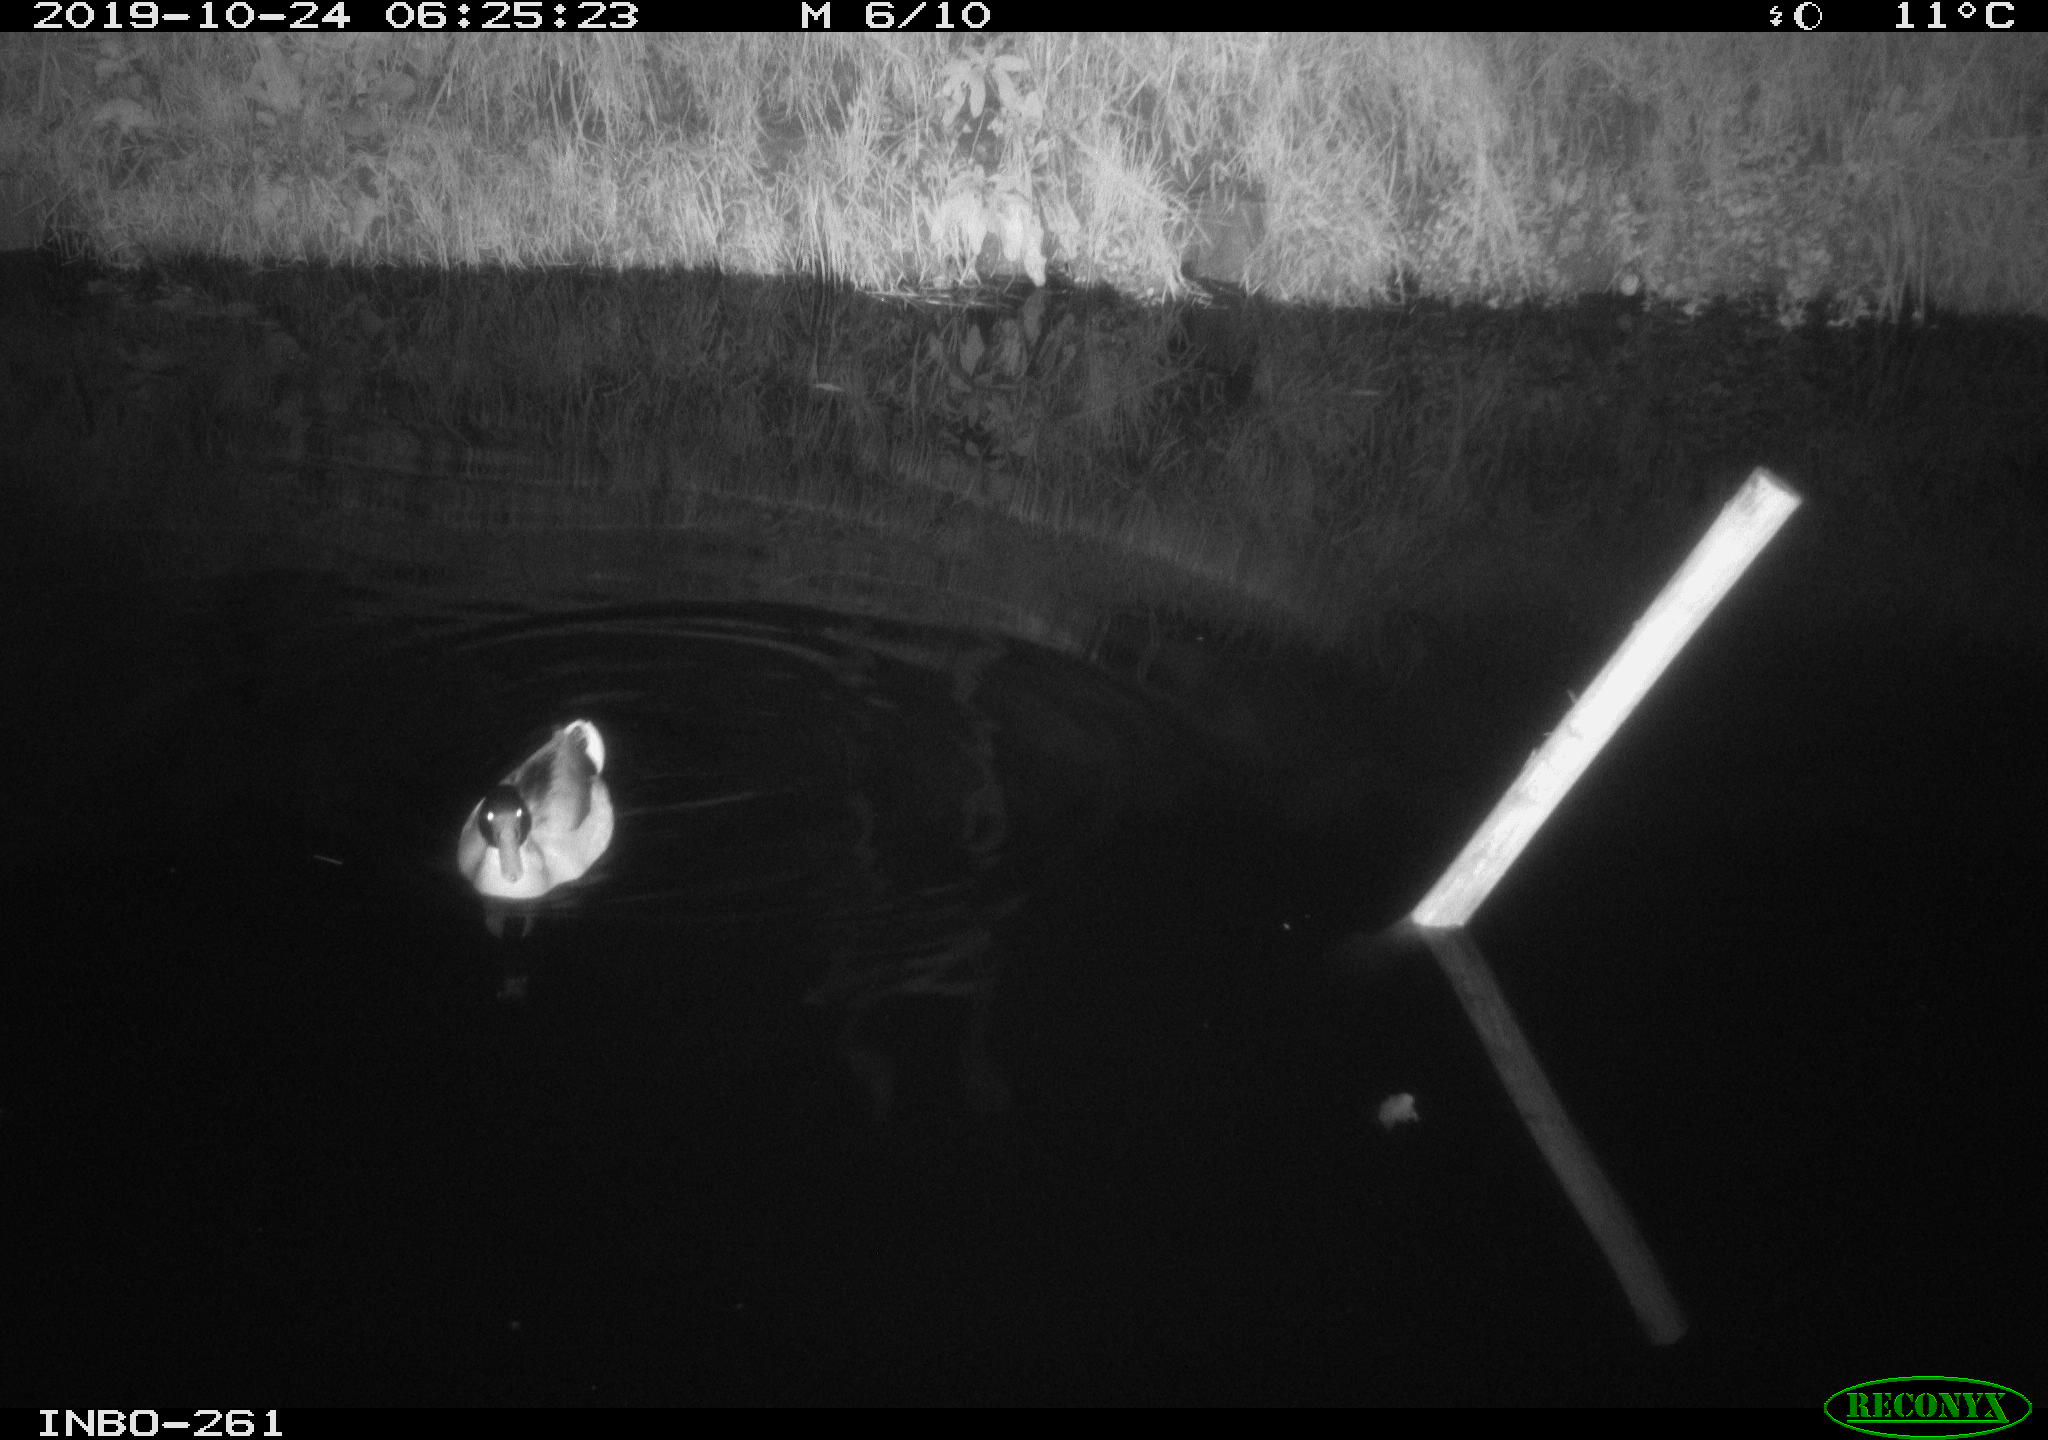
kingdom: Animalia
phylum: Chordata
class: Aves
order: Anseriformes
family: Anatidae
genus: Anas
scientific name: Anas platyrhynchos
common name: Mallard
